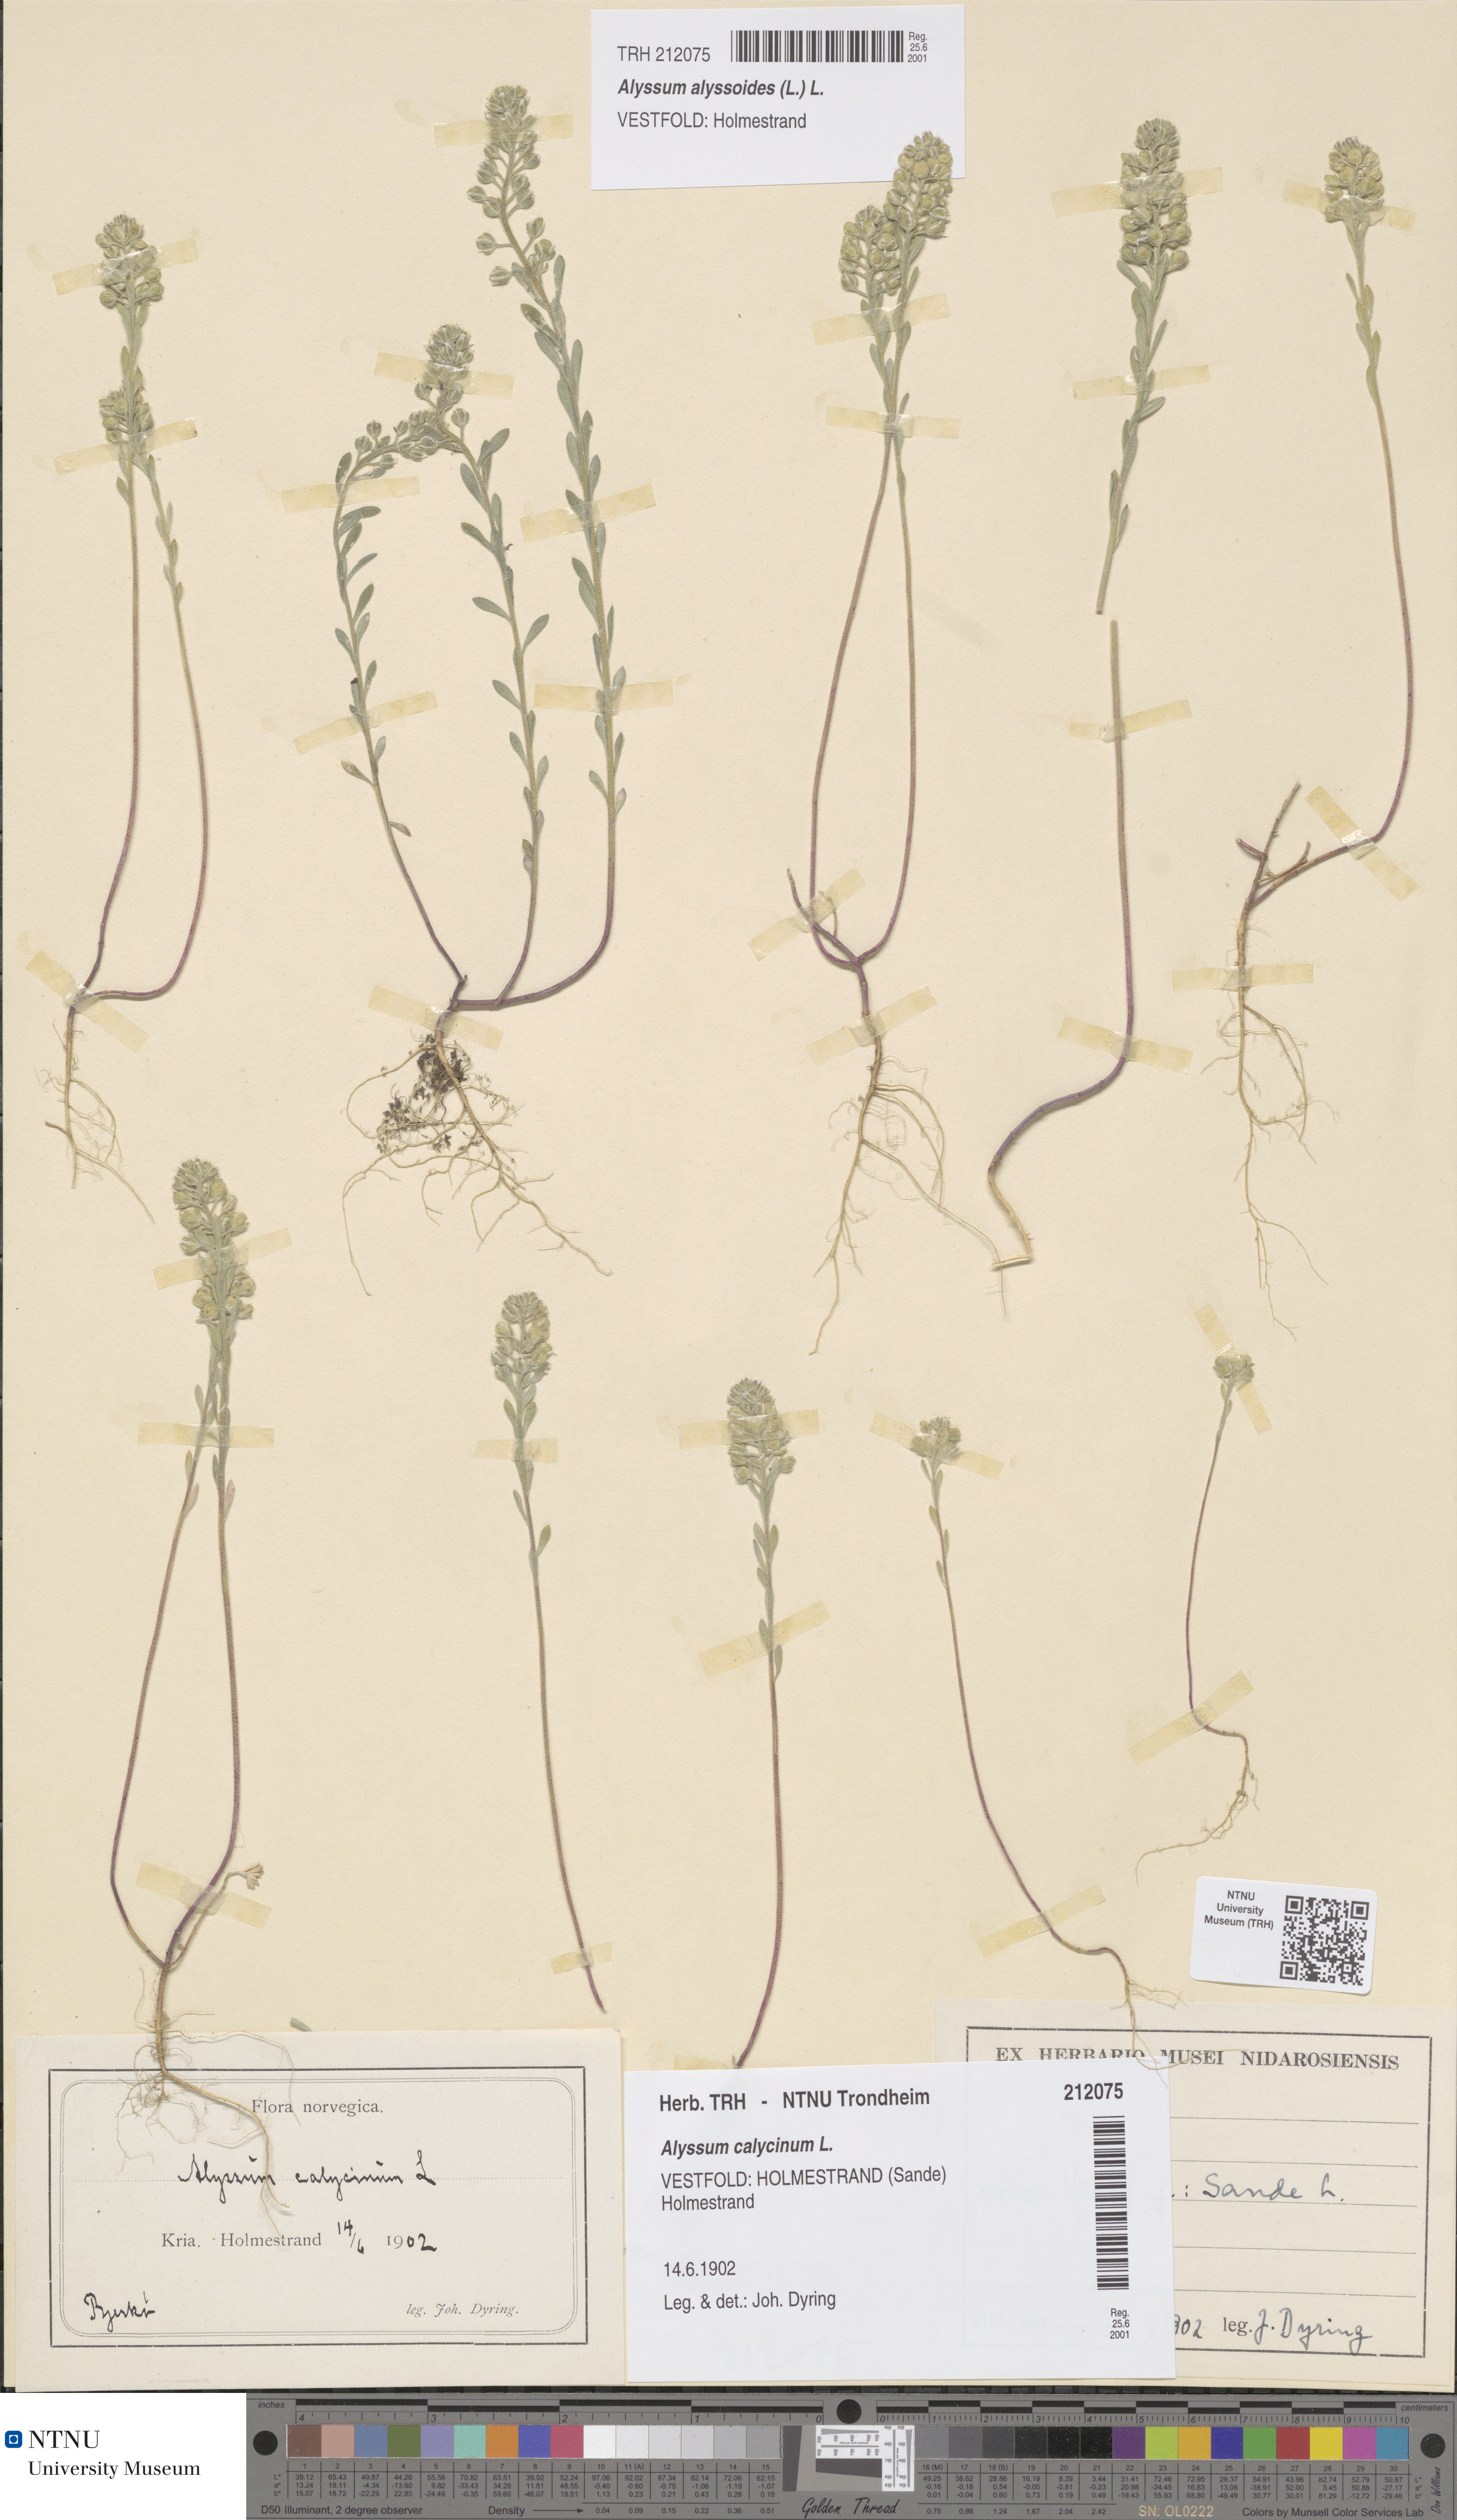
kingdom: Plantae
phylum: Tracheophyta
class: Magnoliopsida
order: Brassicales
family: Brassicaceae
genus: Alyssum
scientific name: Alyssum alyssoides
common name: Small alison
